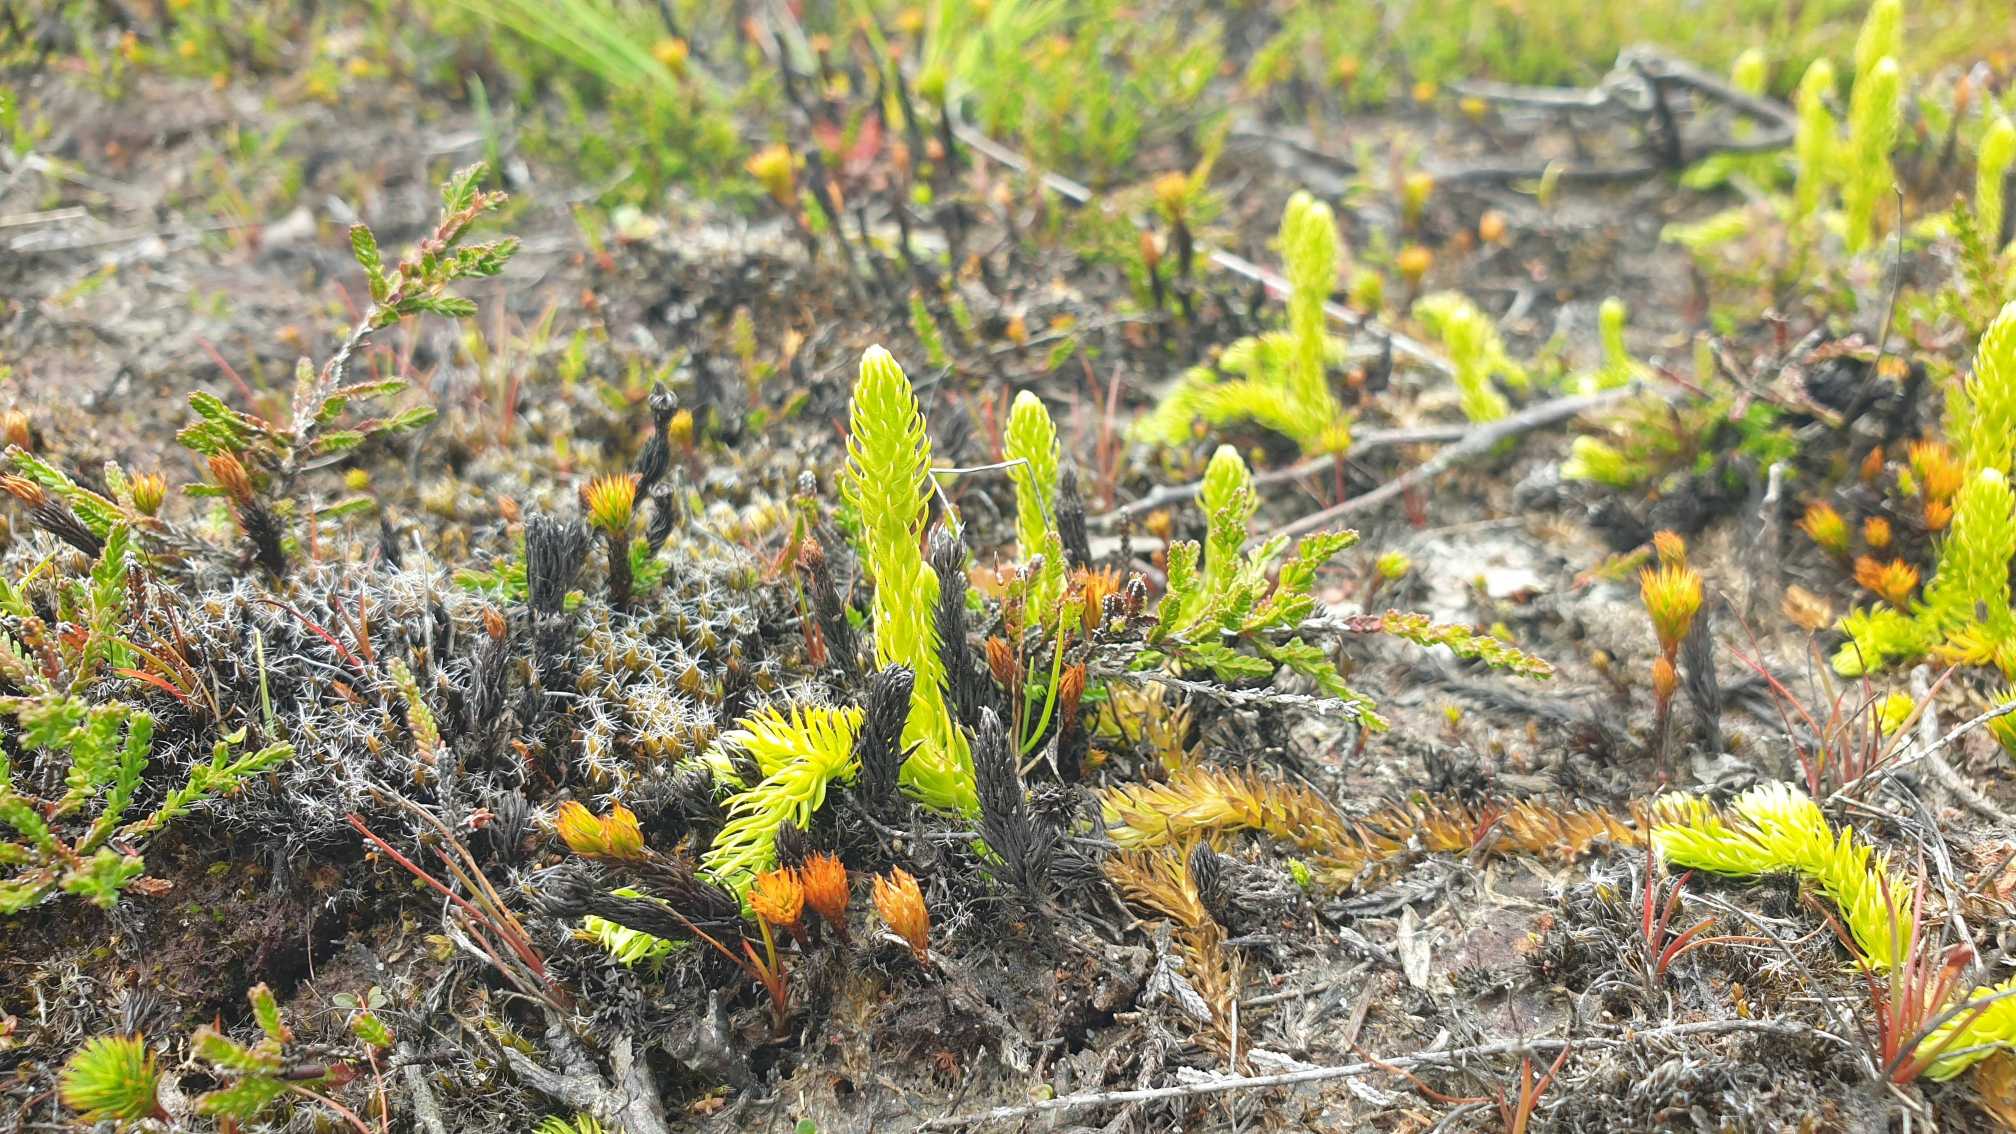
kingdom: Plantae
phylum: Tracheophyta
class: Lycopodiopsida
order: Lycopodiales
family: Lycopodiaceae
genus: Lycopodiella
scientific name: Lycopodiella inundata
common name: Liden ulvefod
